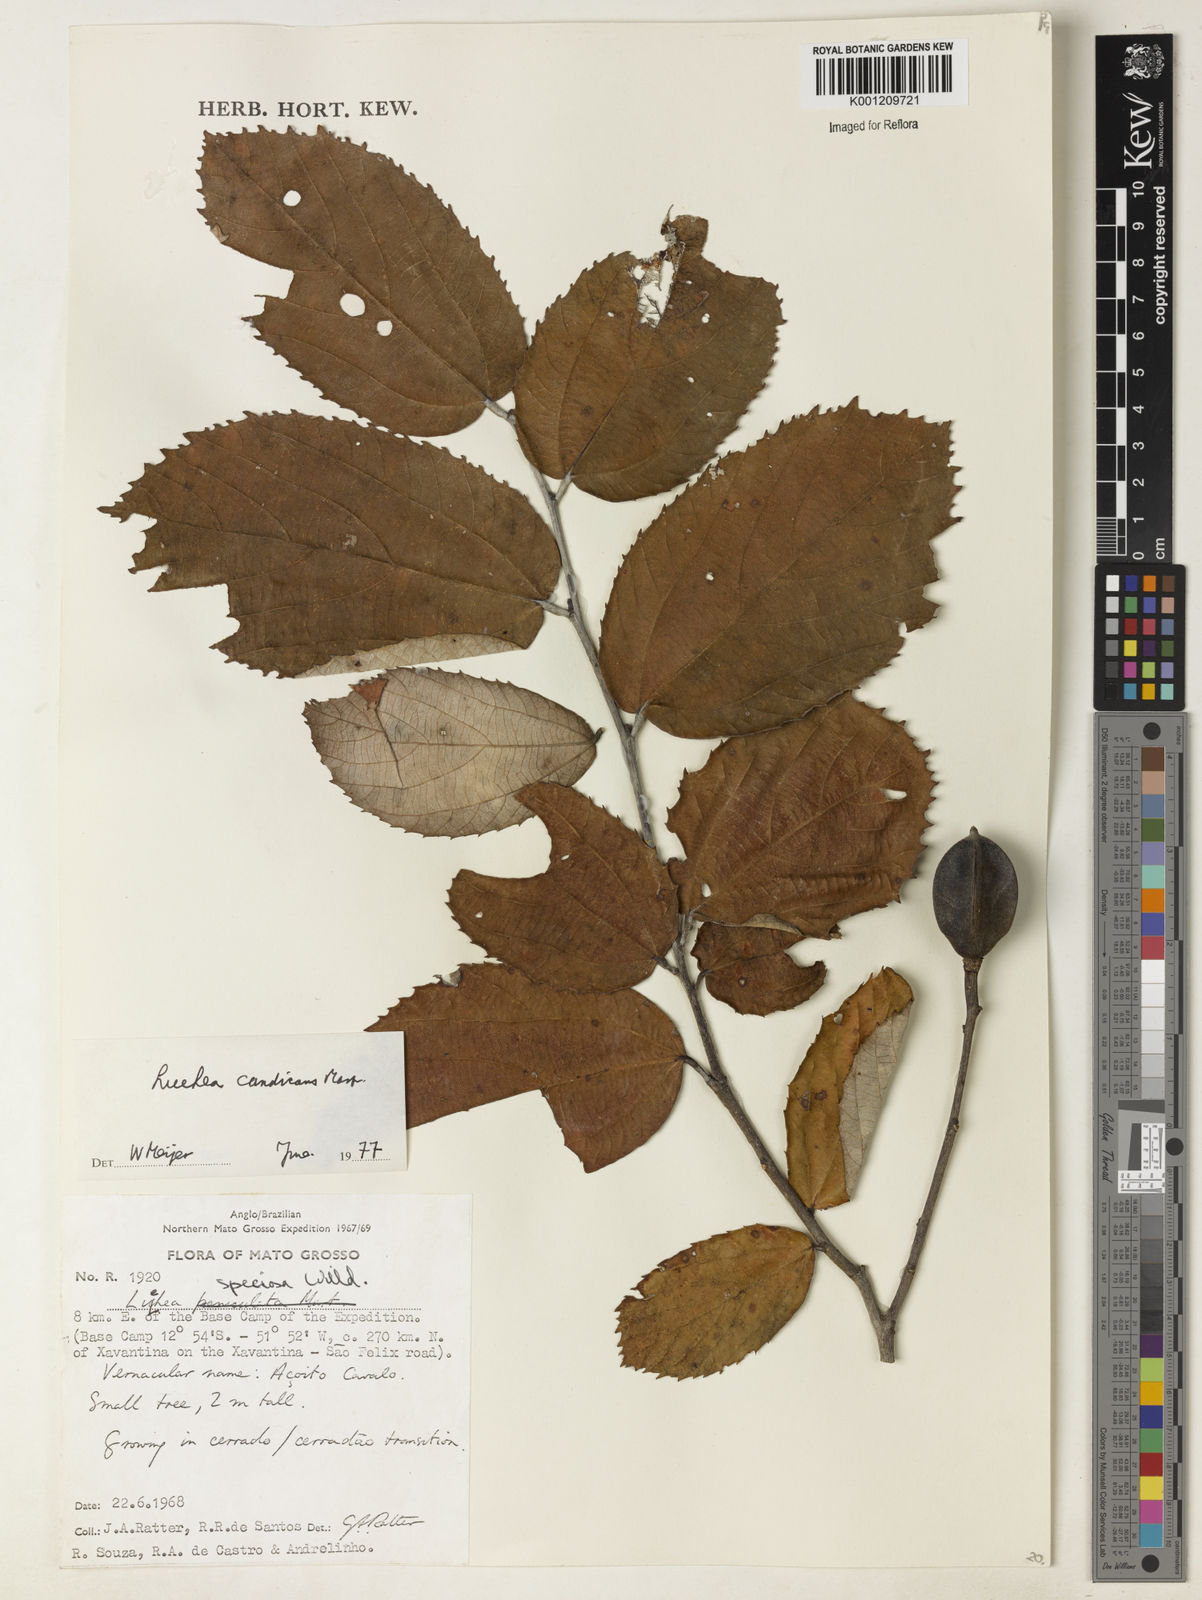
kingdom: Plantae
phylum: Tracheophyta
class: Magnoliopsida
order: Malvales
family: Malvaceae
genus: Luehea
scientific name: Luehea candicans
